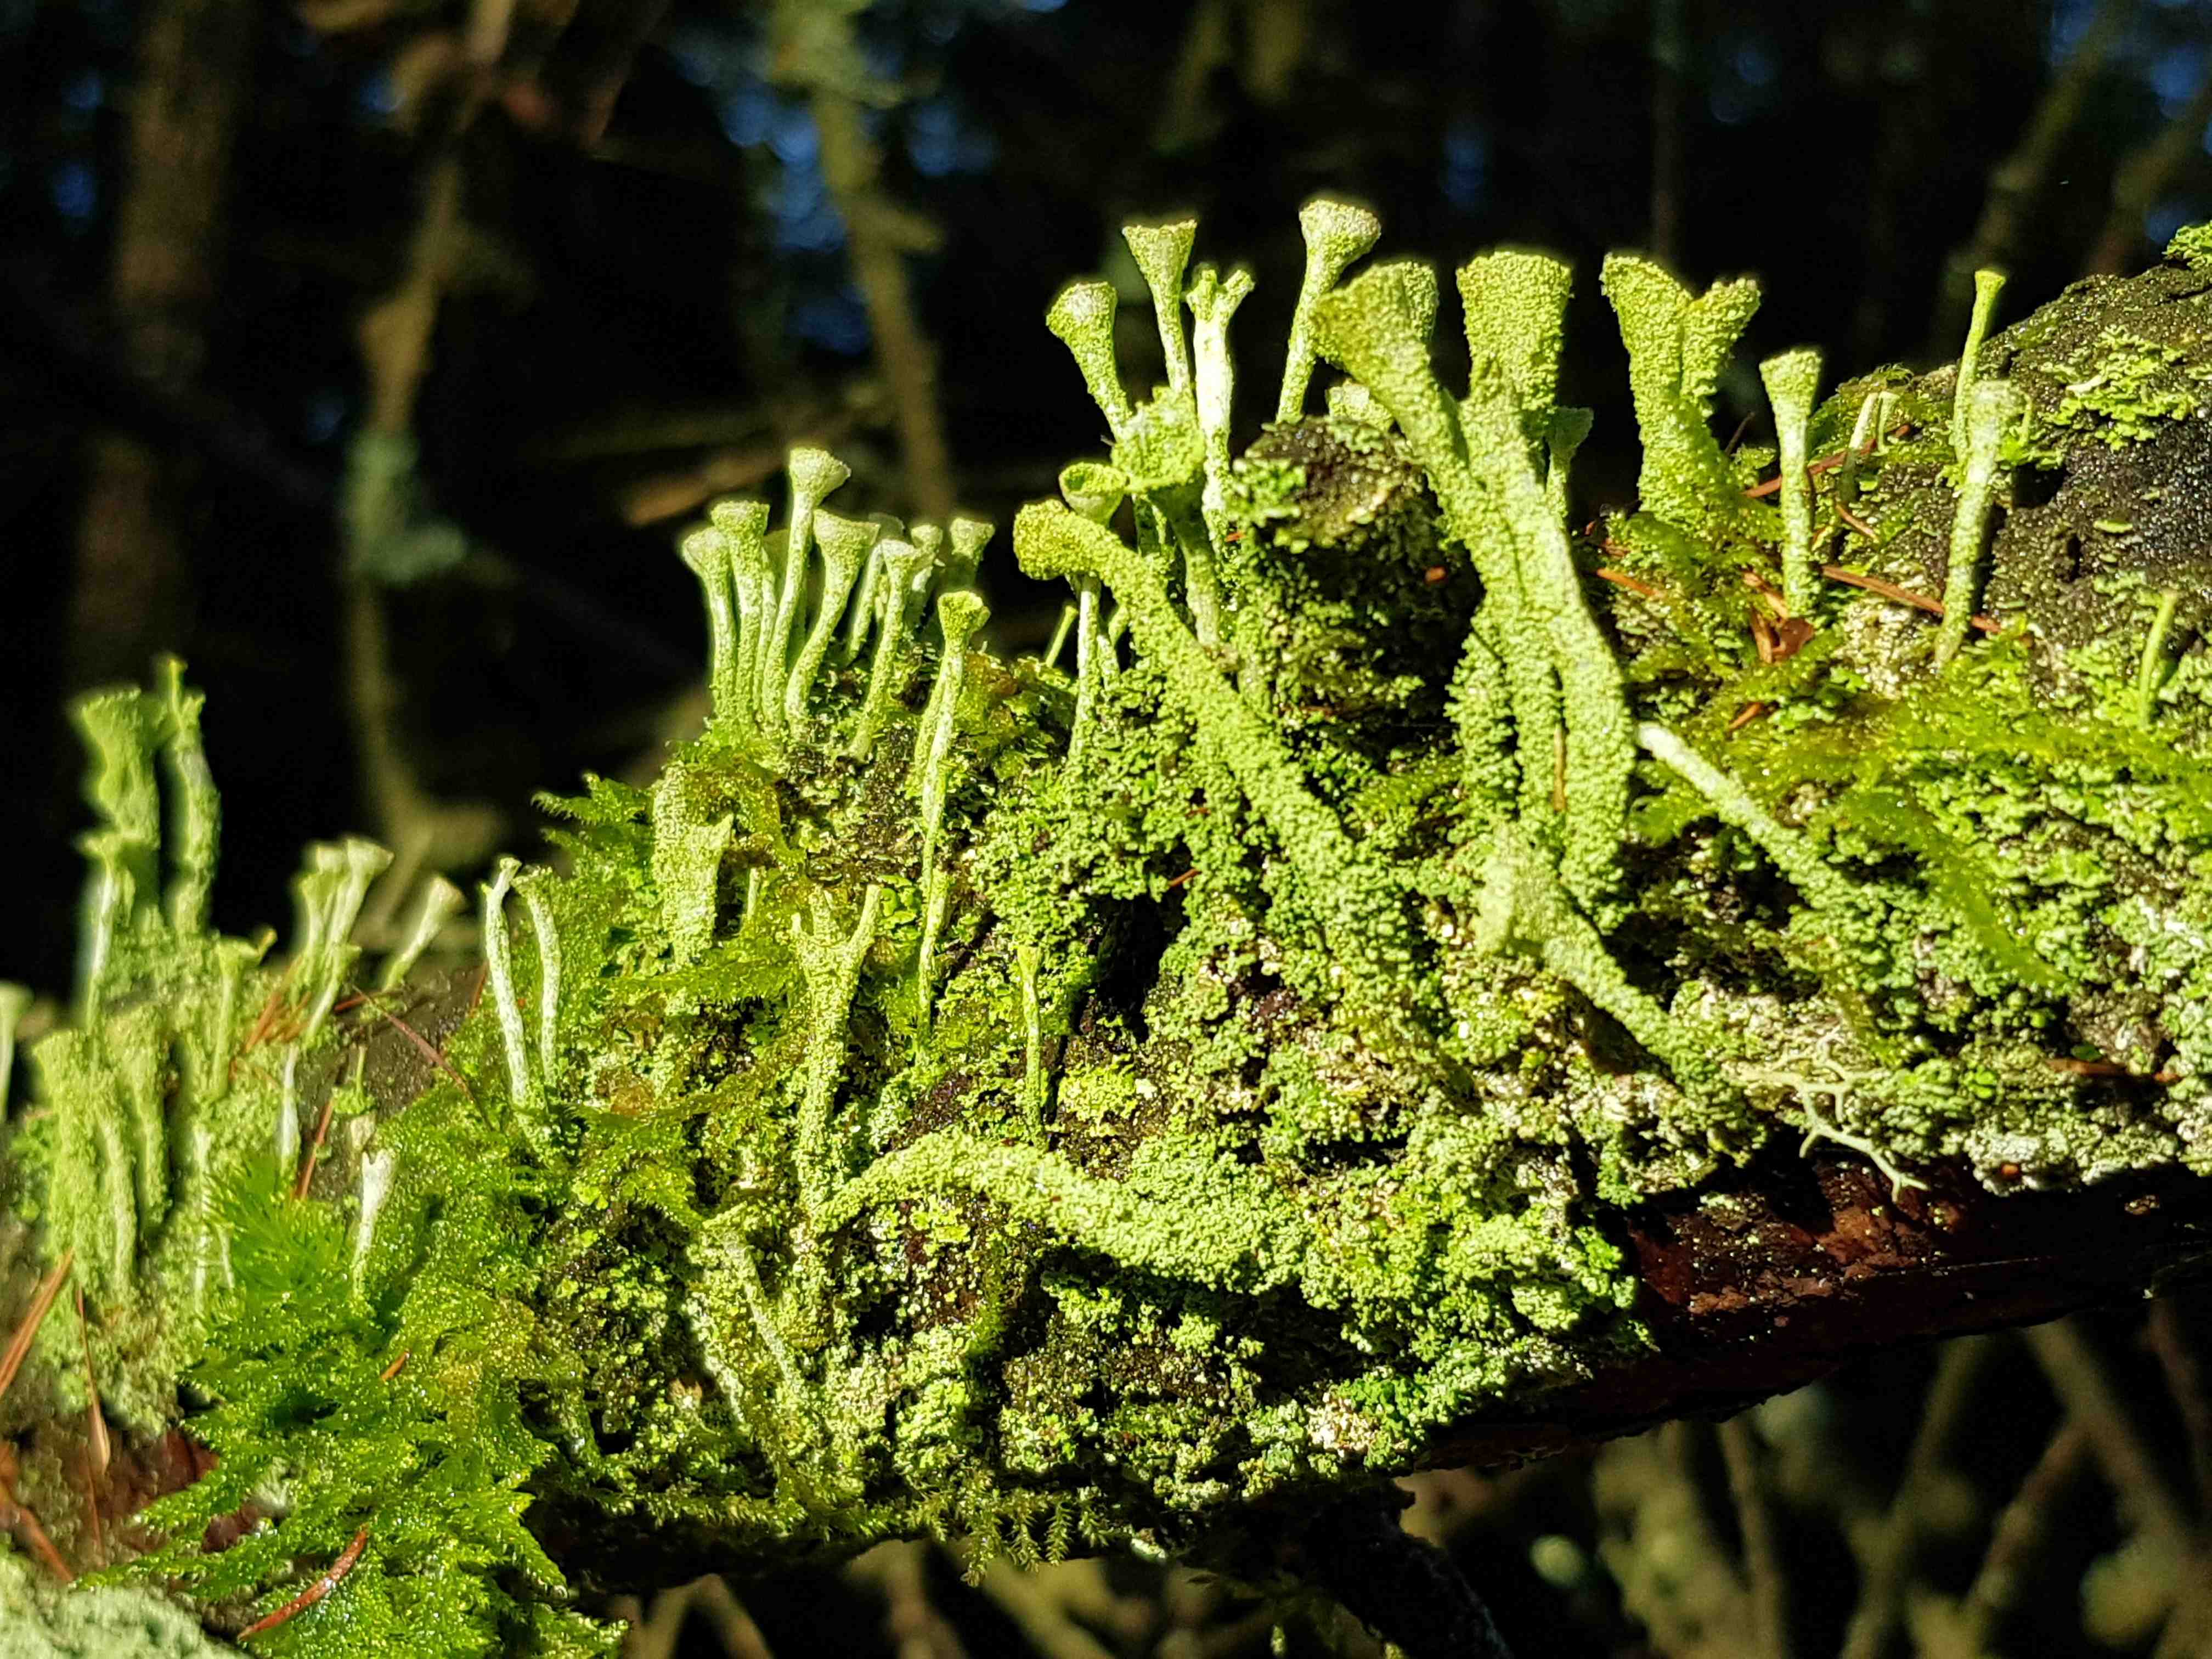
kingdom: Fungi
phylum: Ascomycota
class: Lecanoromycetes
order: Lecanorales
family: Cladoniaceae
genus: Cladonia
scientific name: Cladonia
